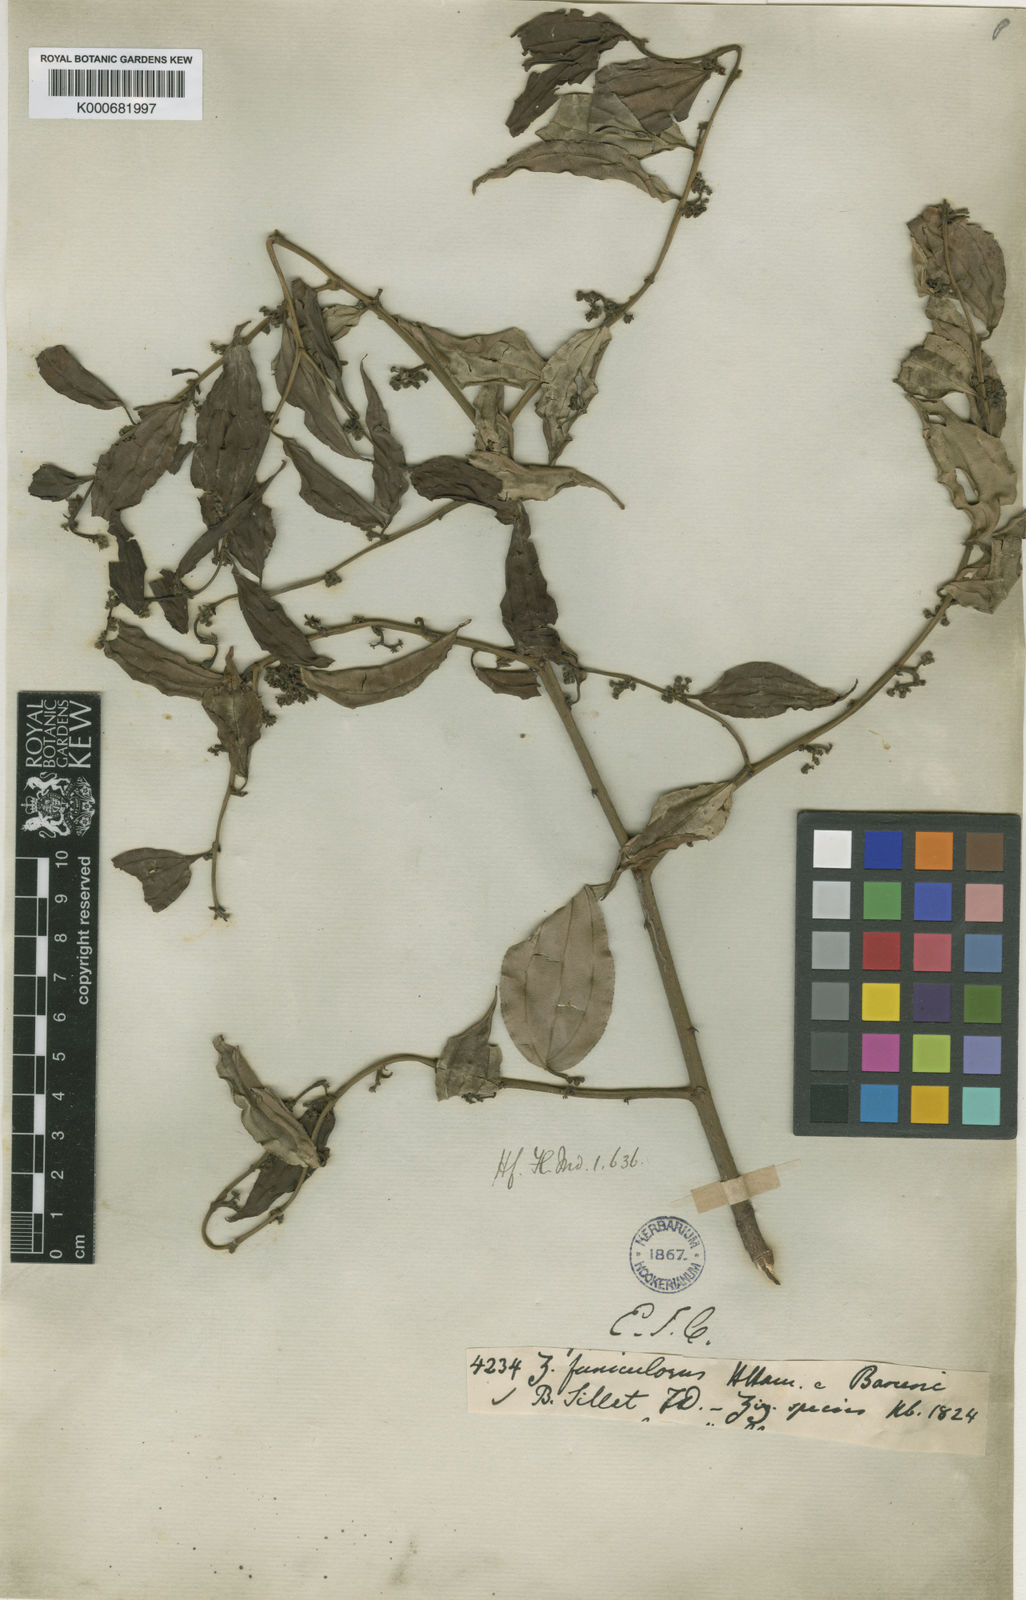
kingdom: Plantae
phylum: Tracheophyta
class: Magnoliopsida
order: Rosales
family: Rhamnaceae
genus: Ziziphus
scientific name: Ziziphus
